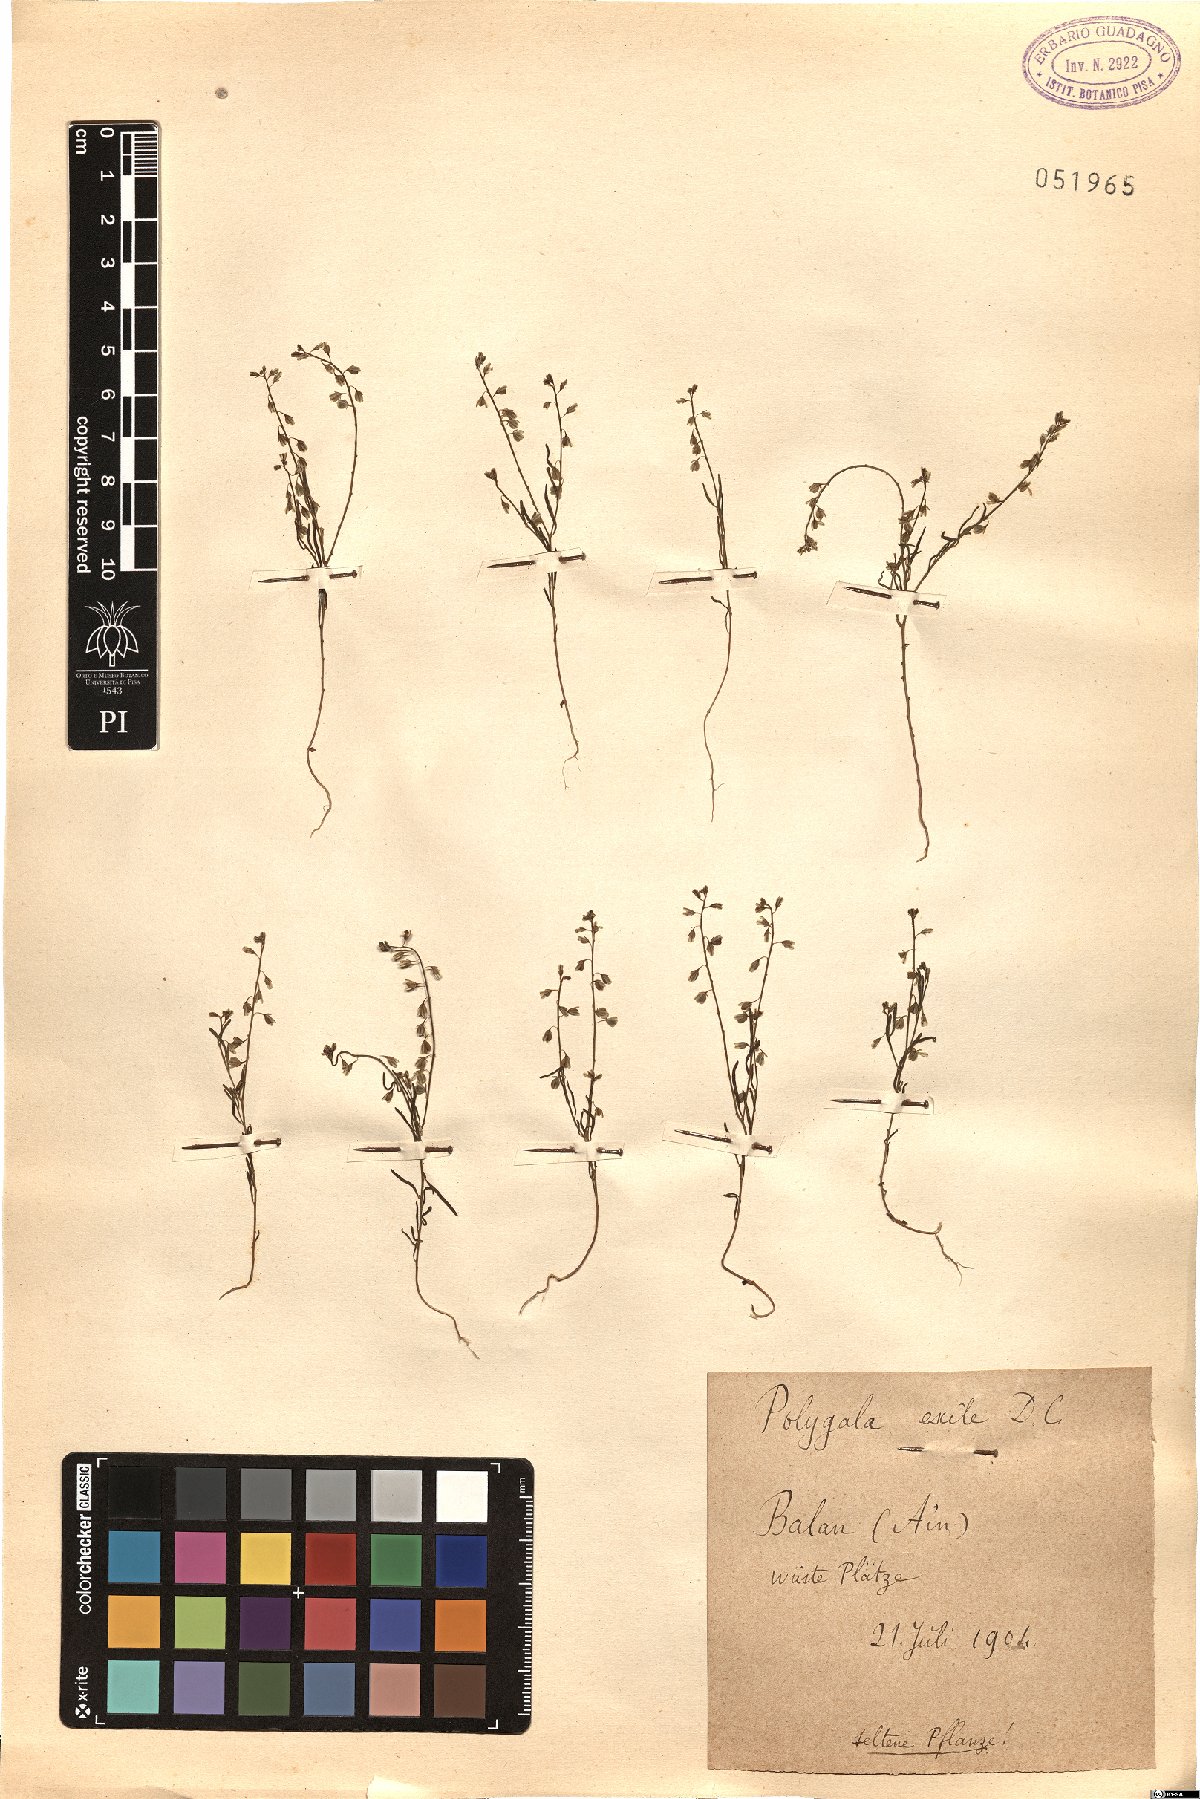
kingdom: Plantae
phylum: Tracheophyta
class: Magnoliopsida
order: Fabales
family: Polygalaceae
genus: Polygala
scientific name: Polygala exilis
